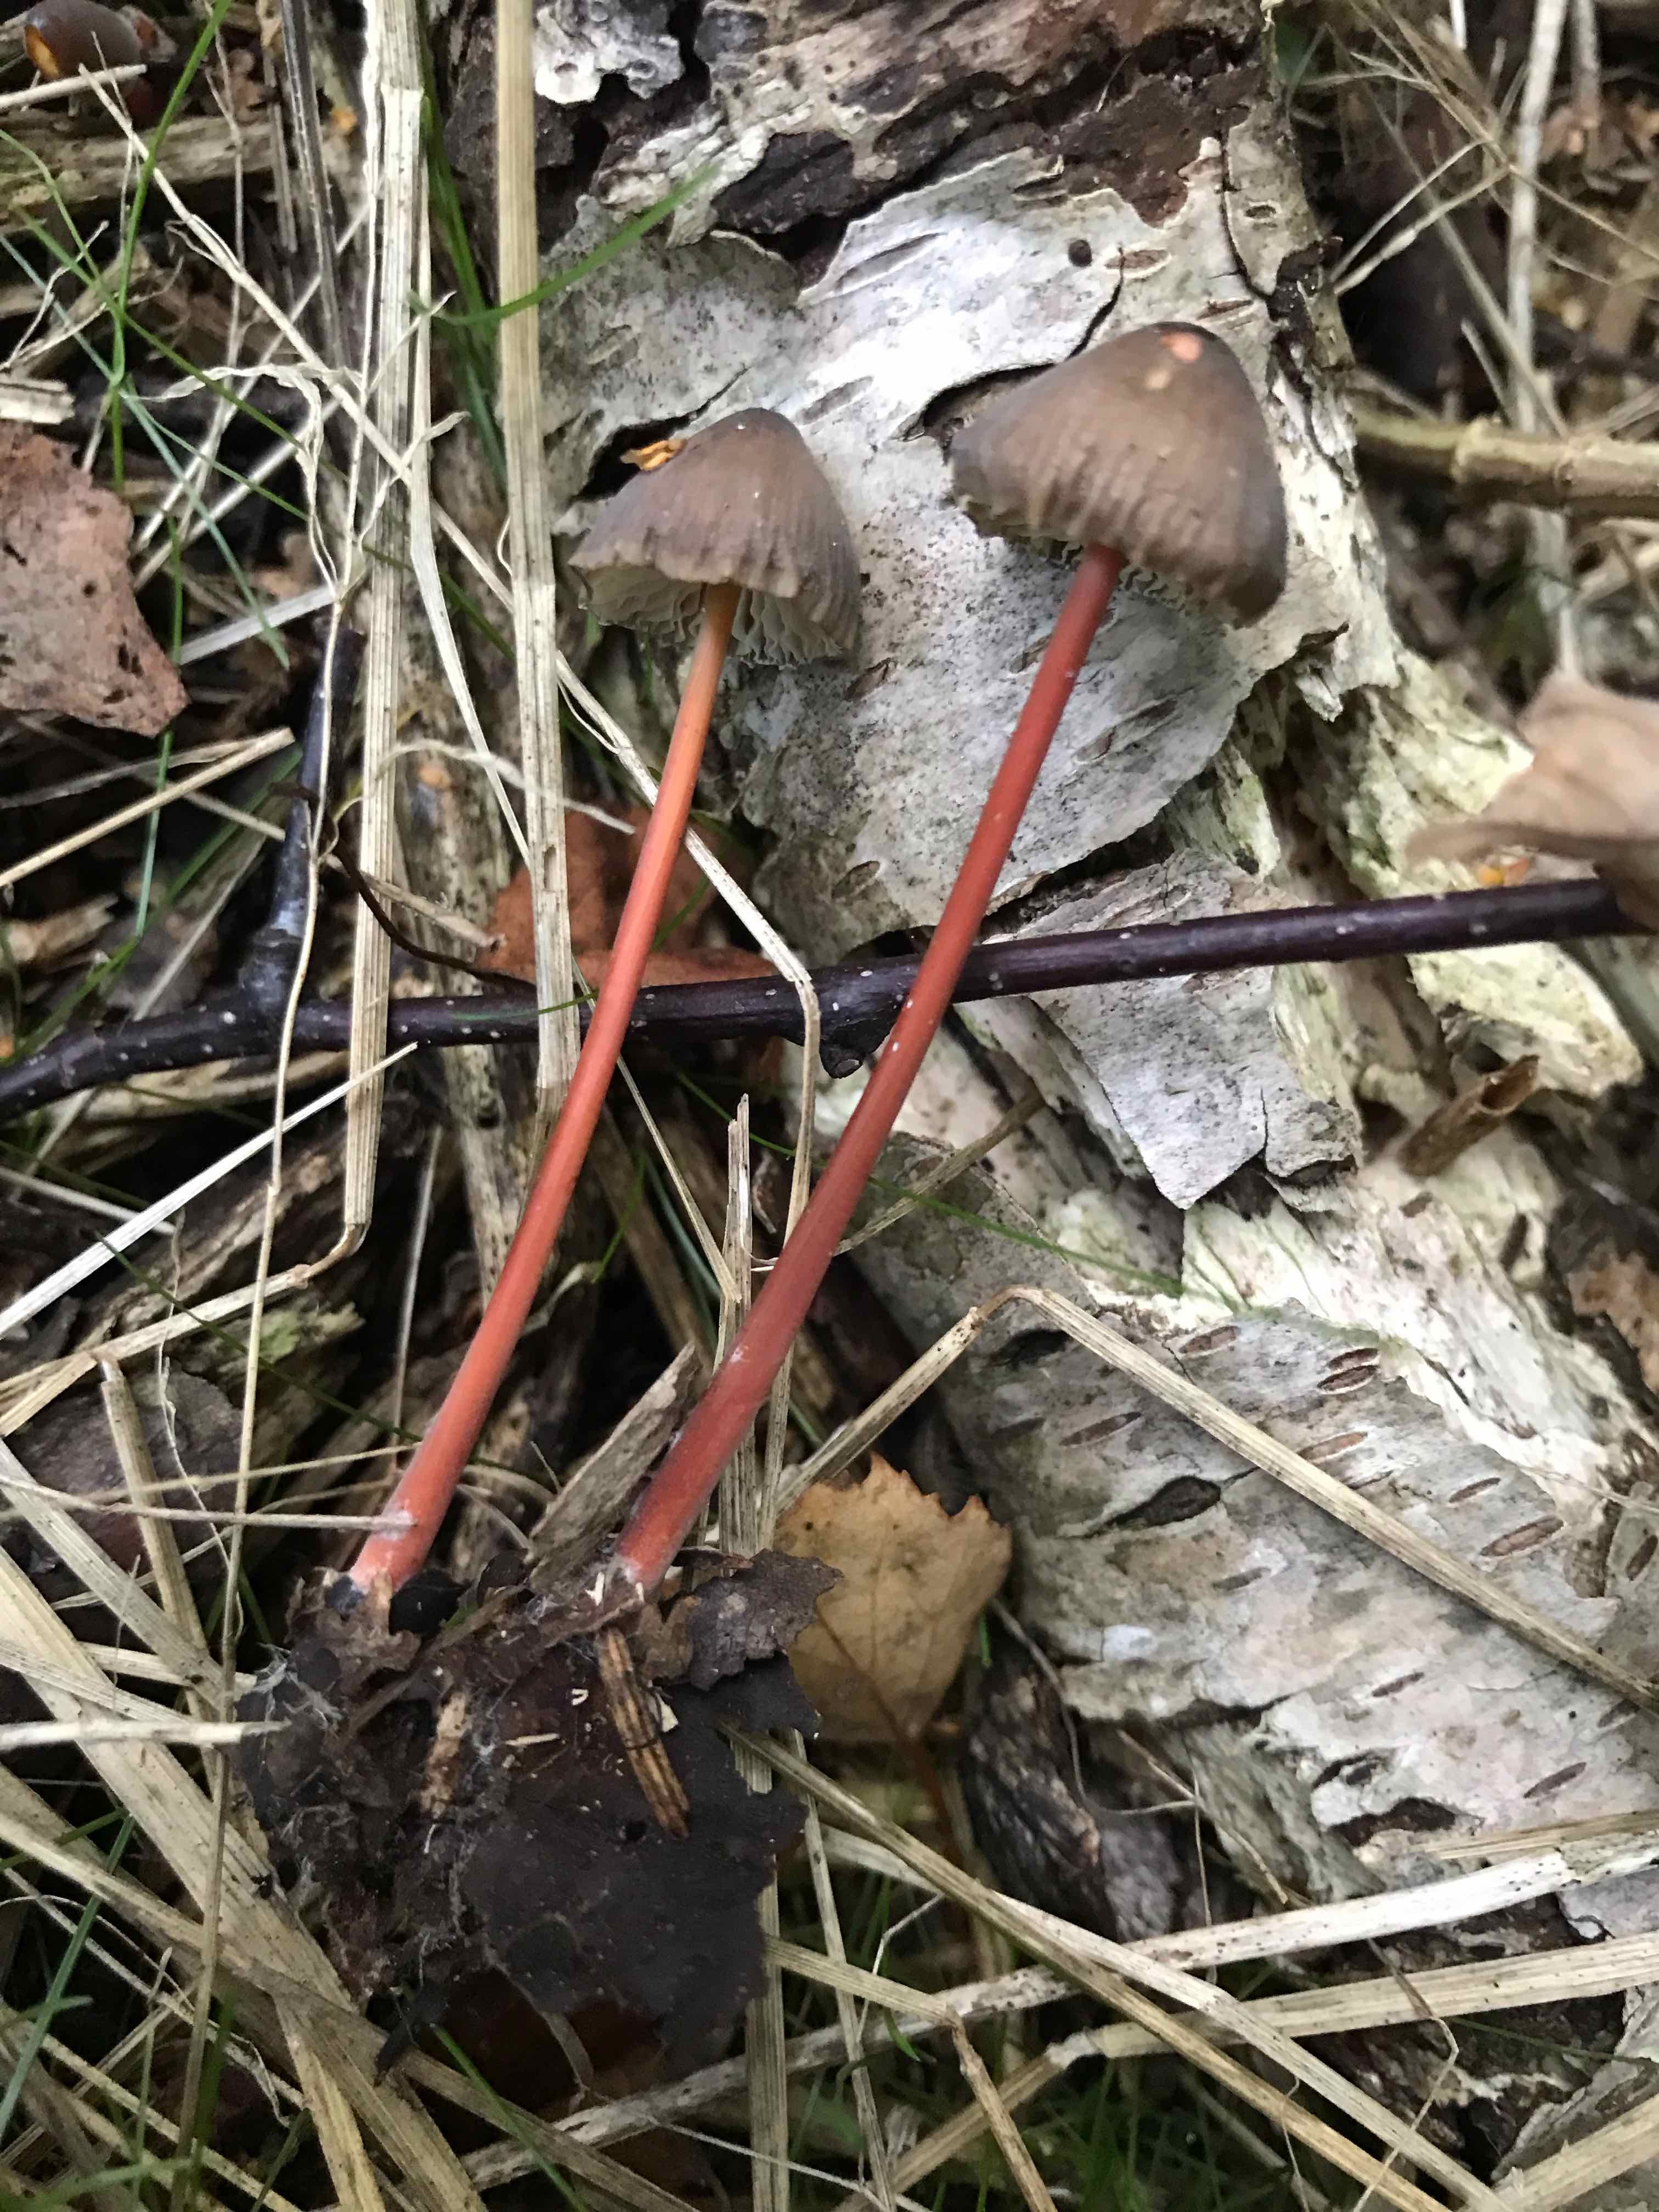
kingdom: Fungi
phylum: Basidiomycota
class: Agaricomycetes
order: Agaricales
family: Mycenaceae
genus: Mycena
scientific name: Mycena crocata
